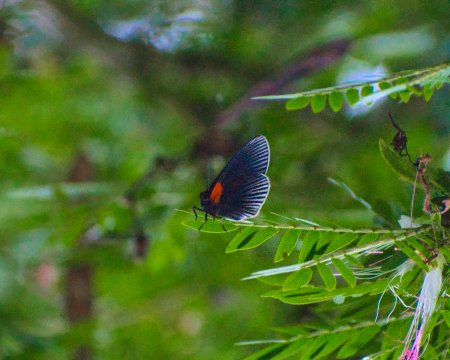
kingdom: Animalia
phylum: Arthropoda
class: Insecta
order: Lepidoptera
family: Riodinidae
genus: Hades
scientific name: Hades noctula
